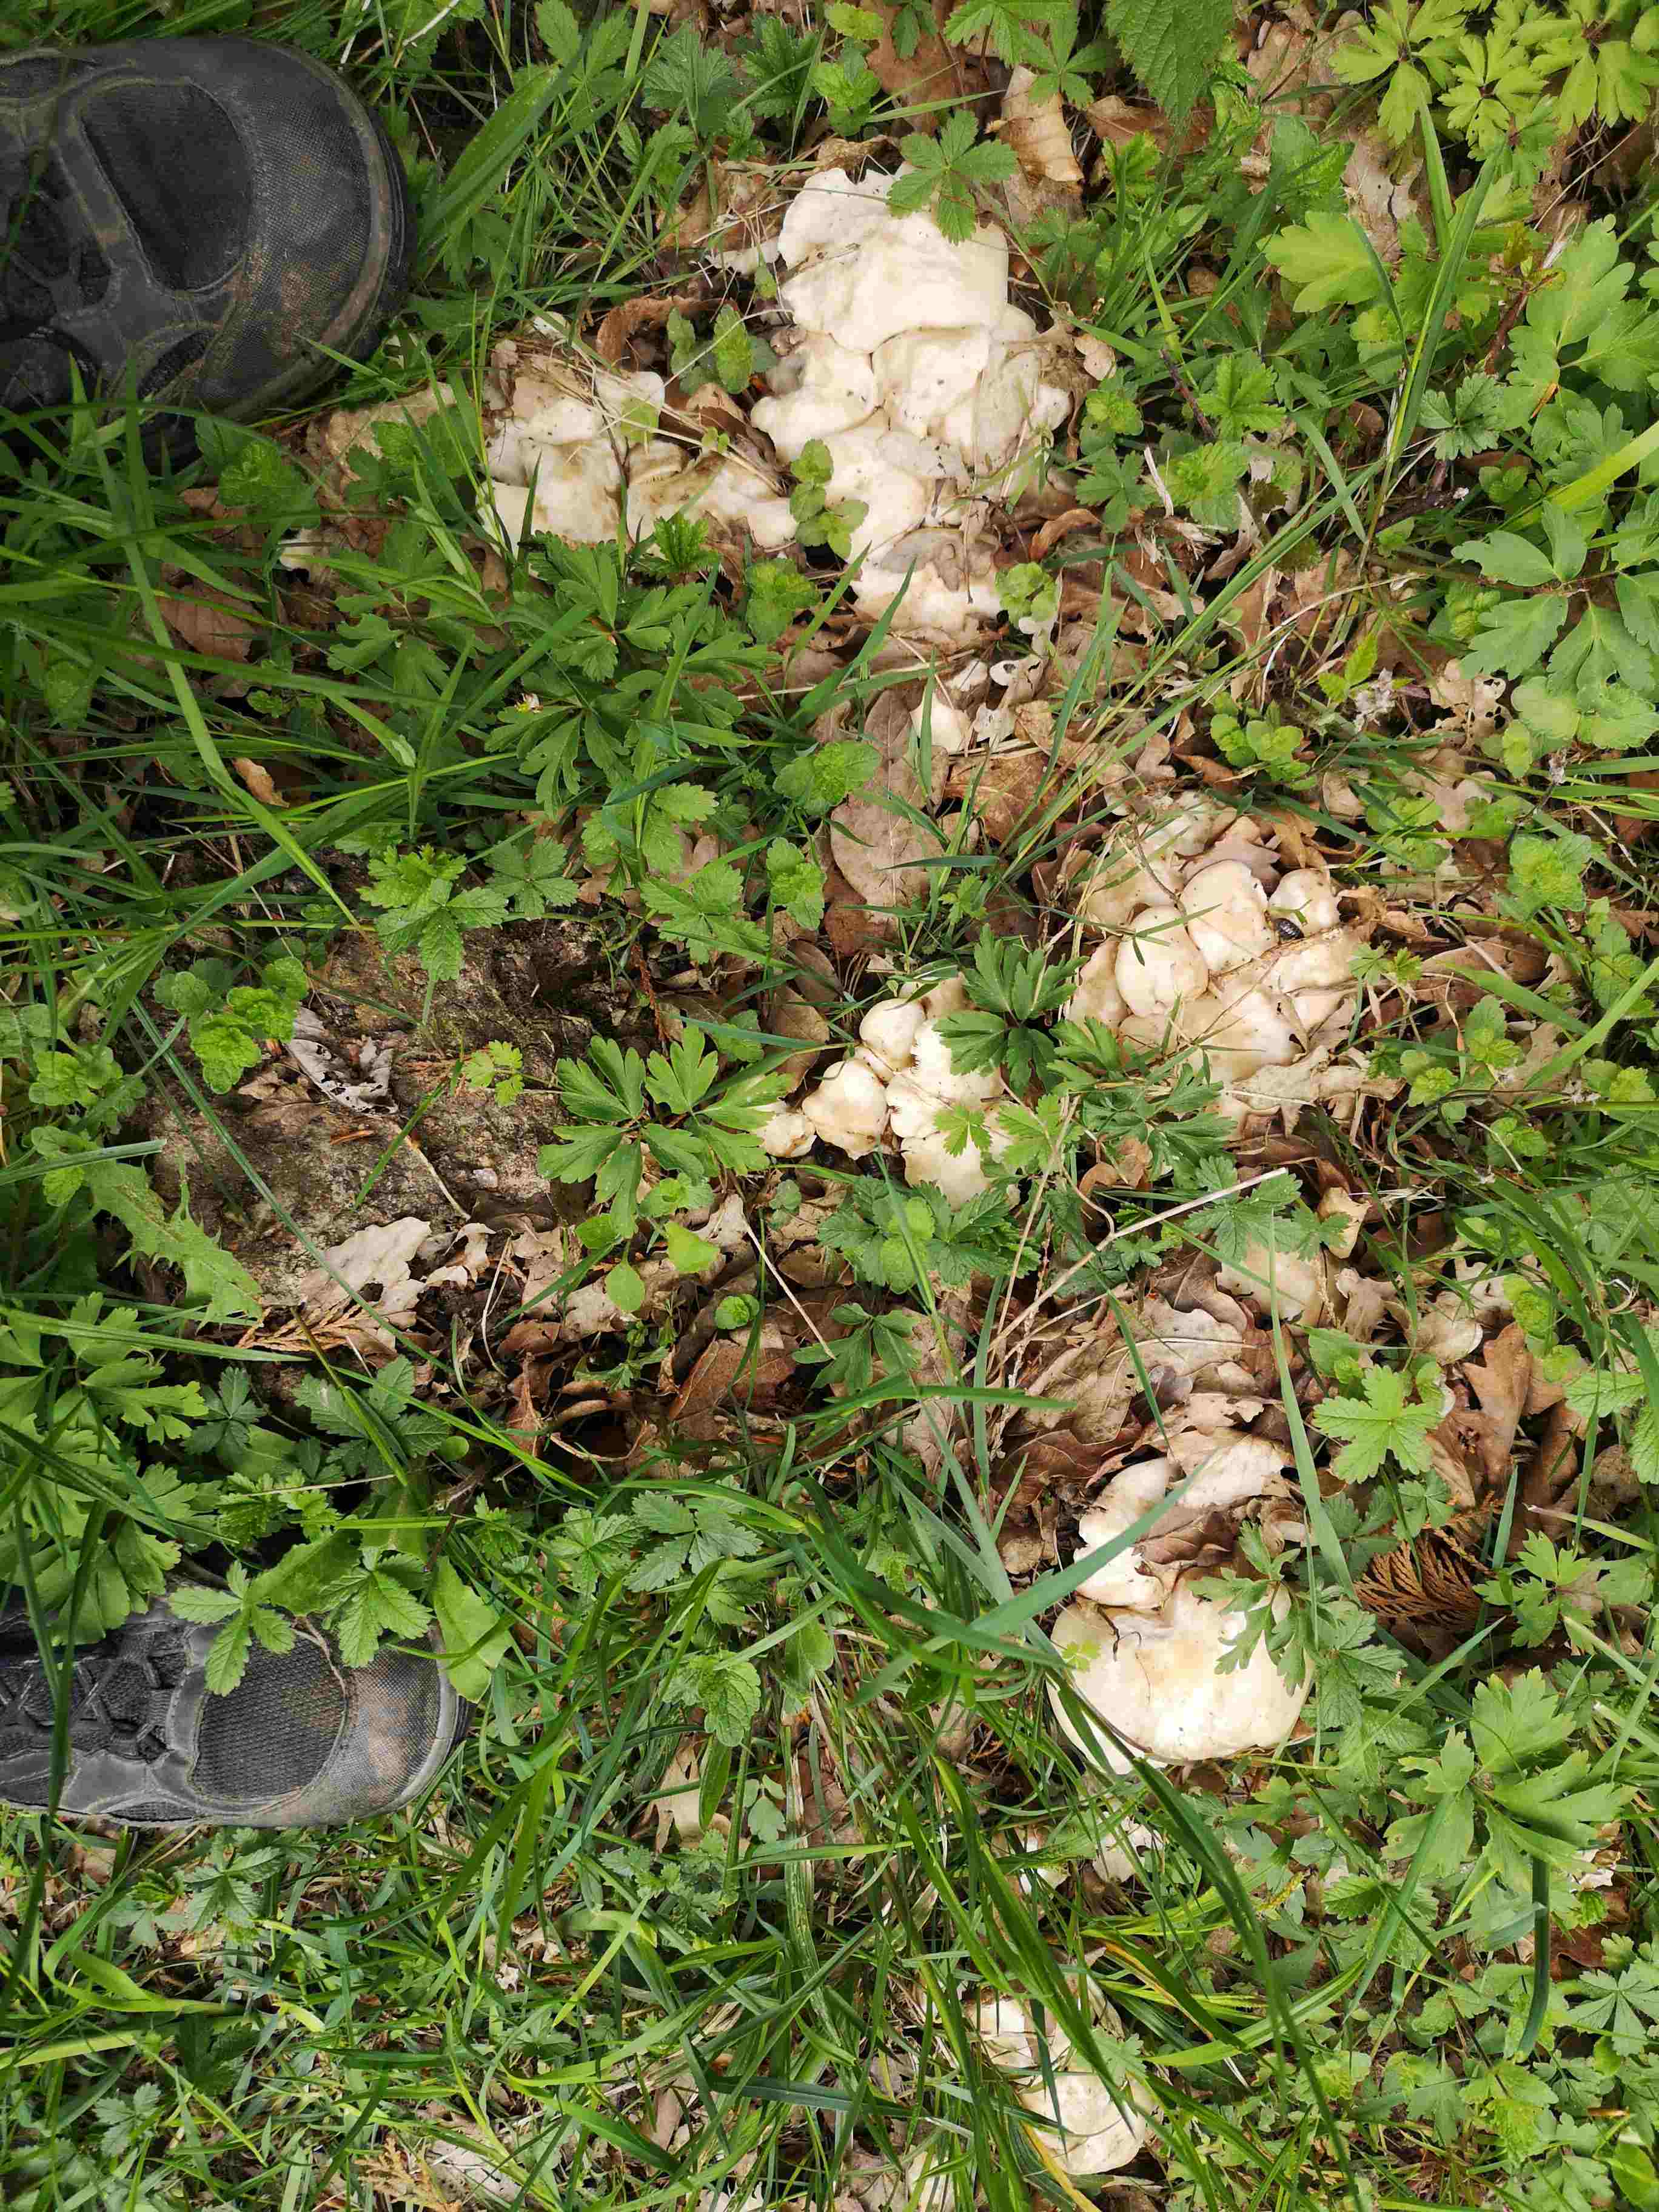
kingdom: Fungi
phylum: Basidiomycota
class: Agaricomycetes
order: Agaricales
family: Lyophyllaceae
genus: Calocybe
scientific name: Calocybe gambosa
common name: vårmusseron
